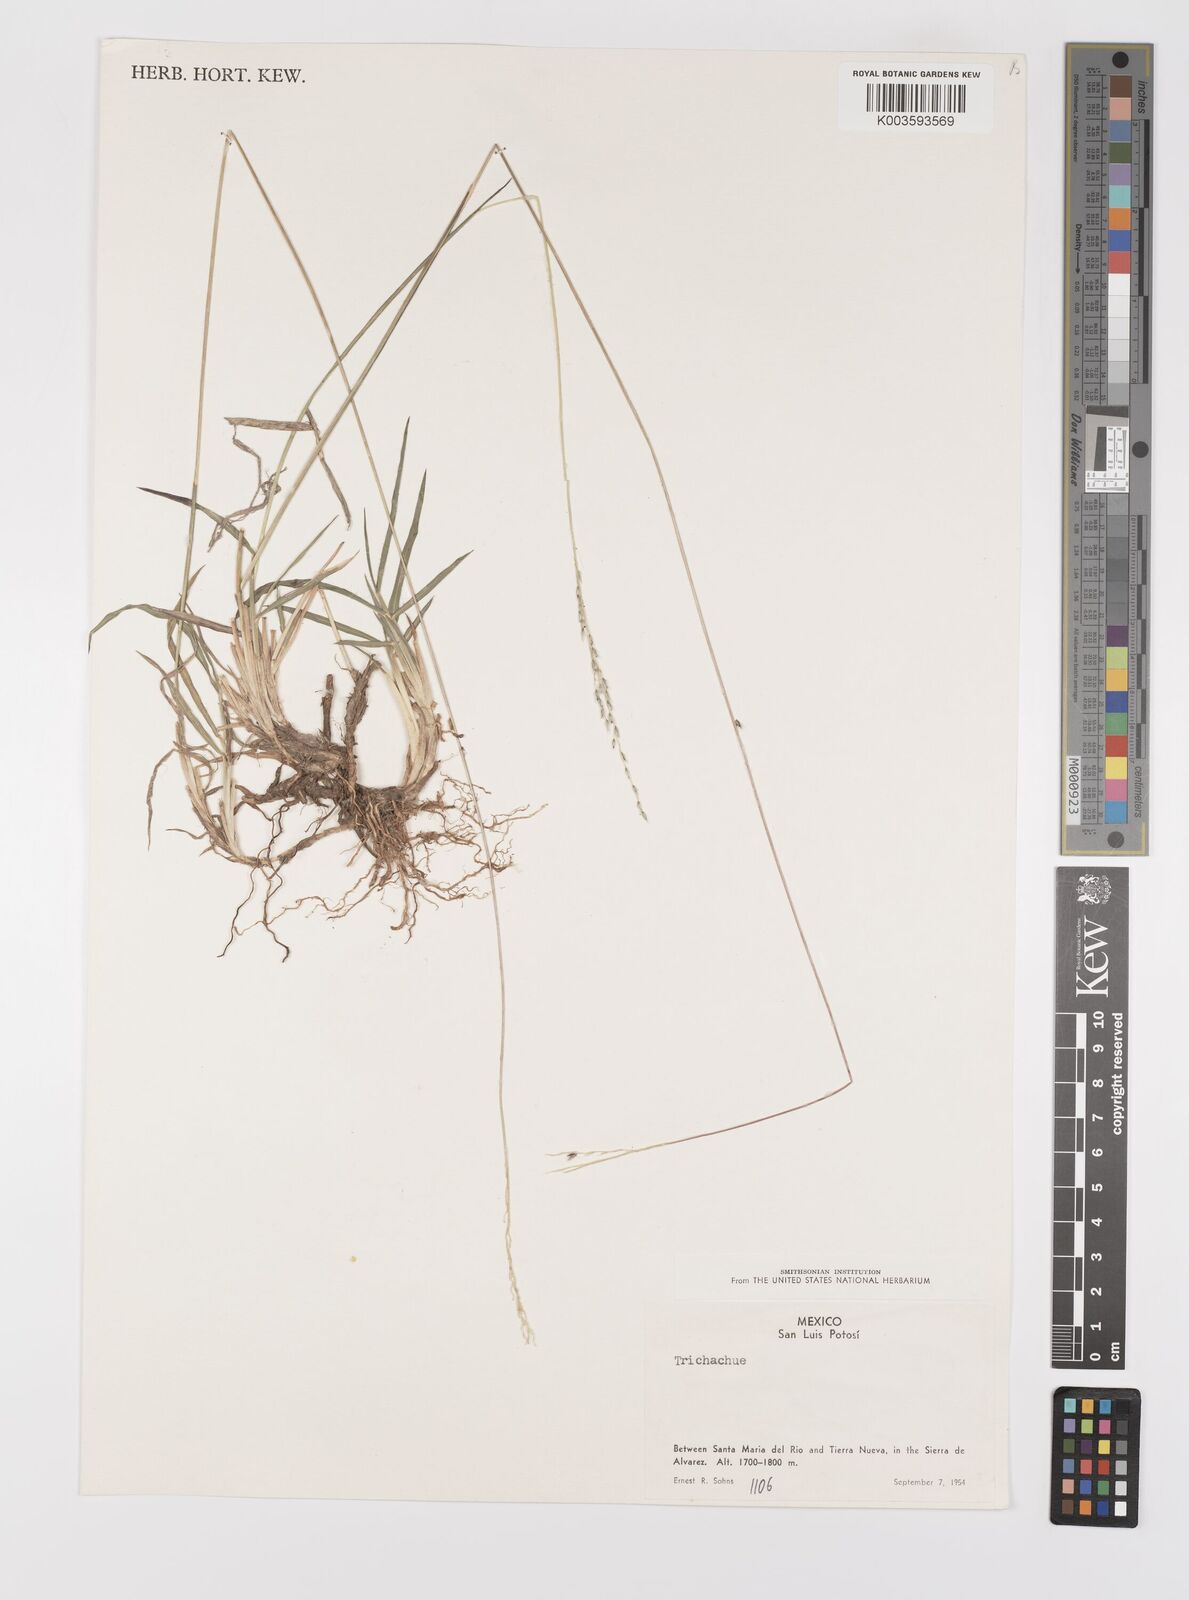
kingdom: Plantae
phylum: Tracheophyta
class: Liliopsida
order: Poales
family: Poaceae
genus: Digitaria
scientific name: Digitaria spec
